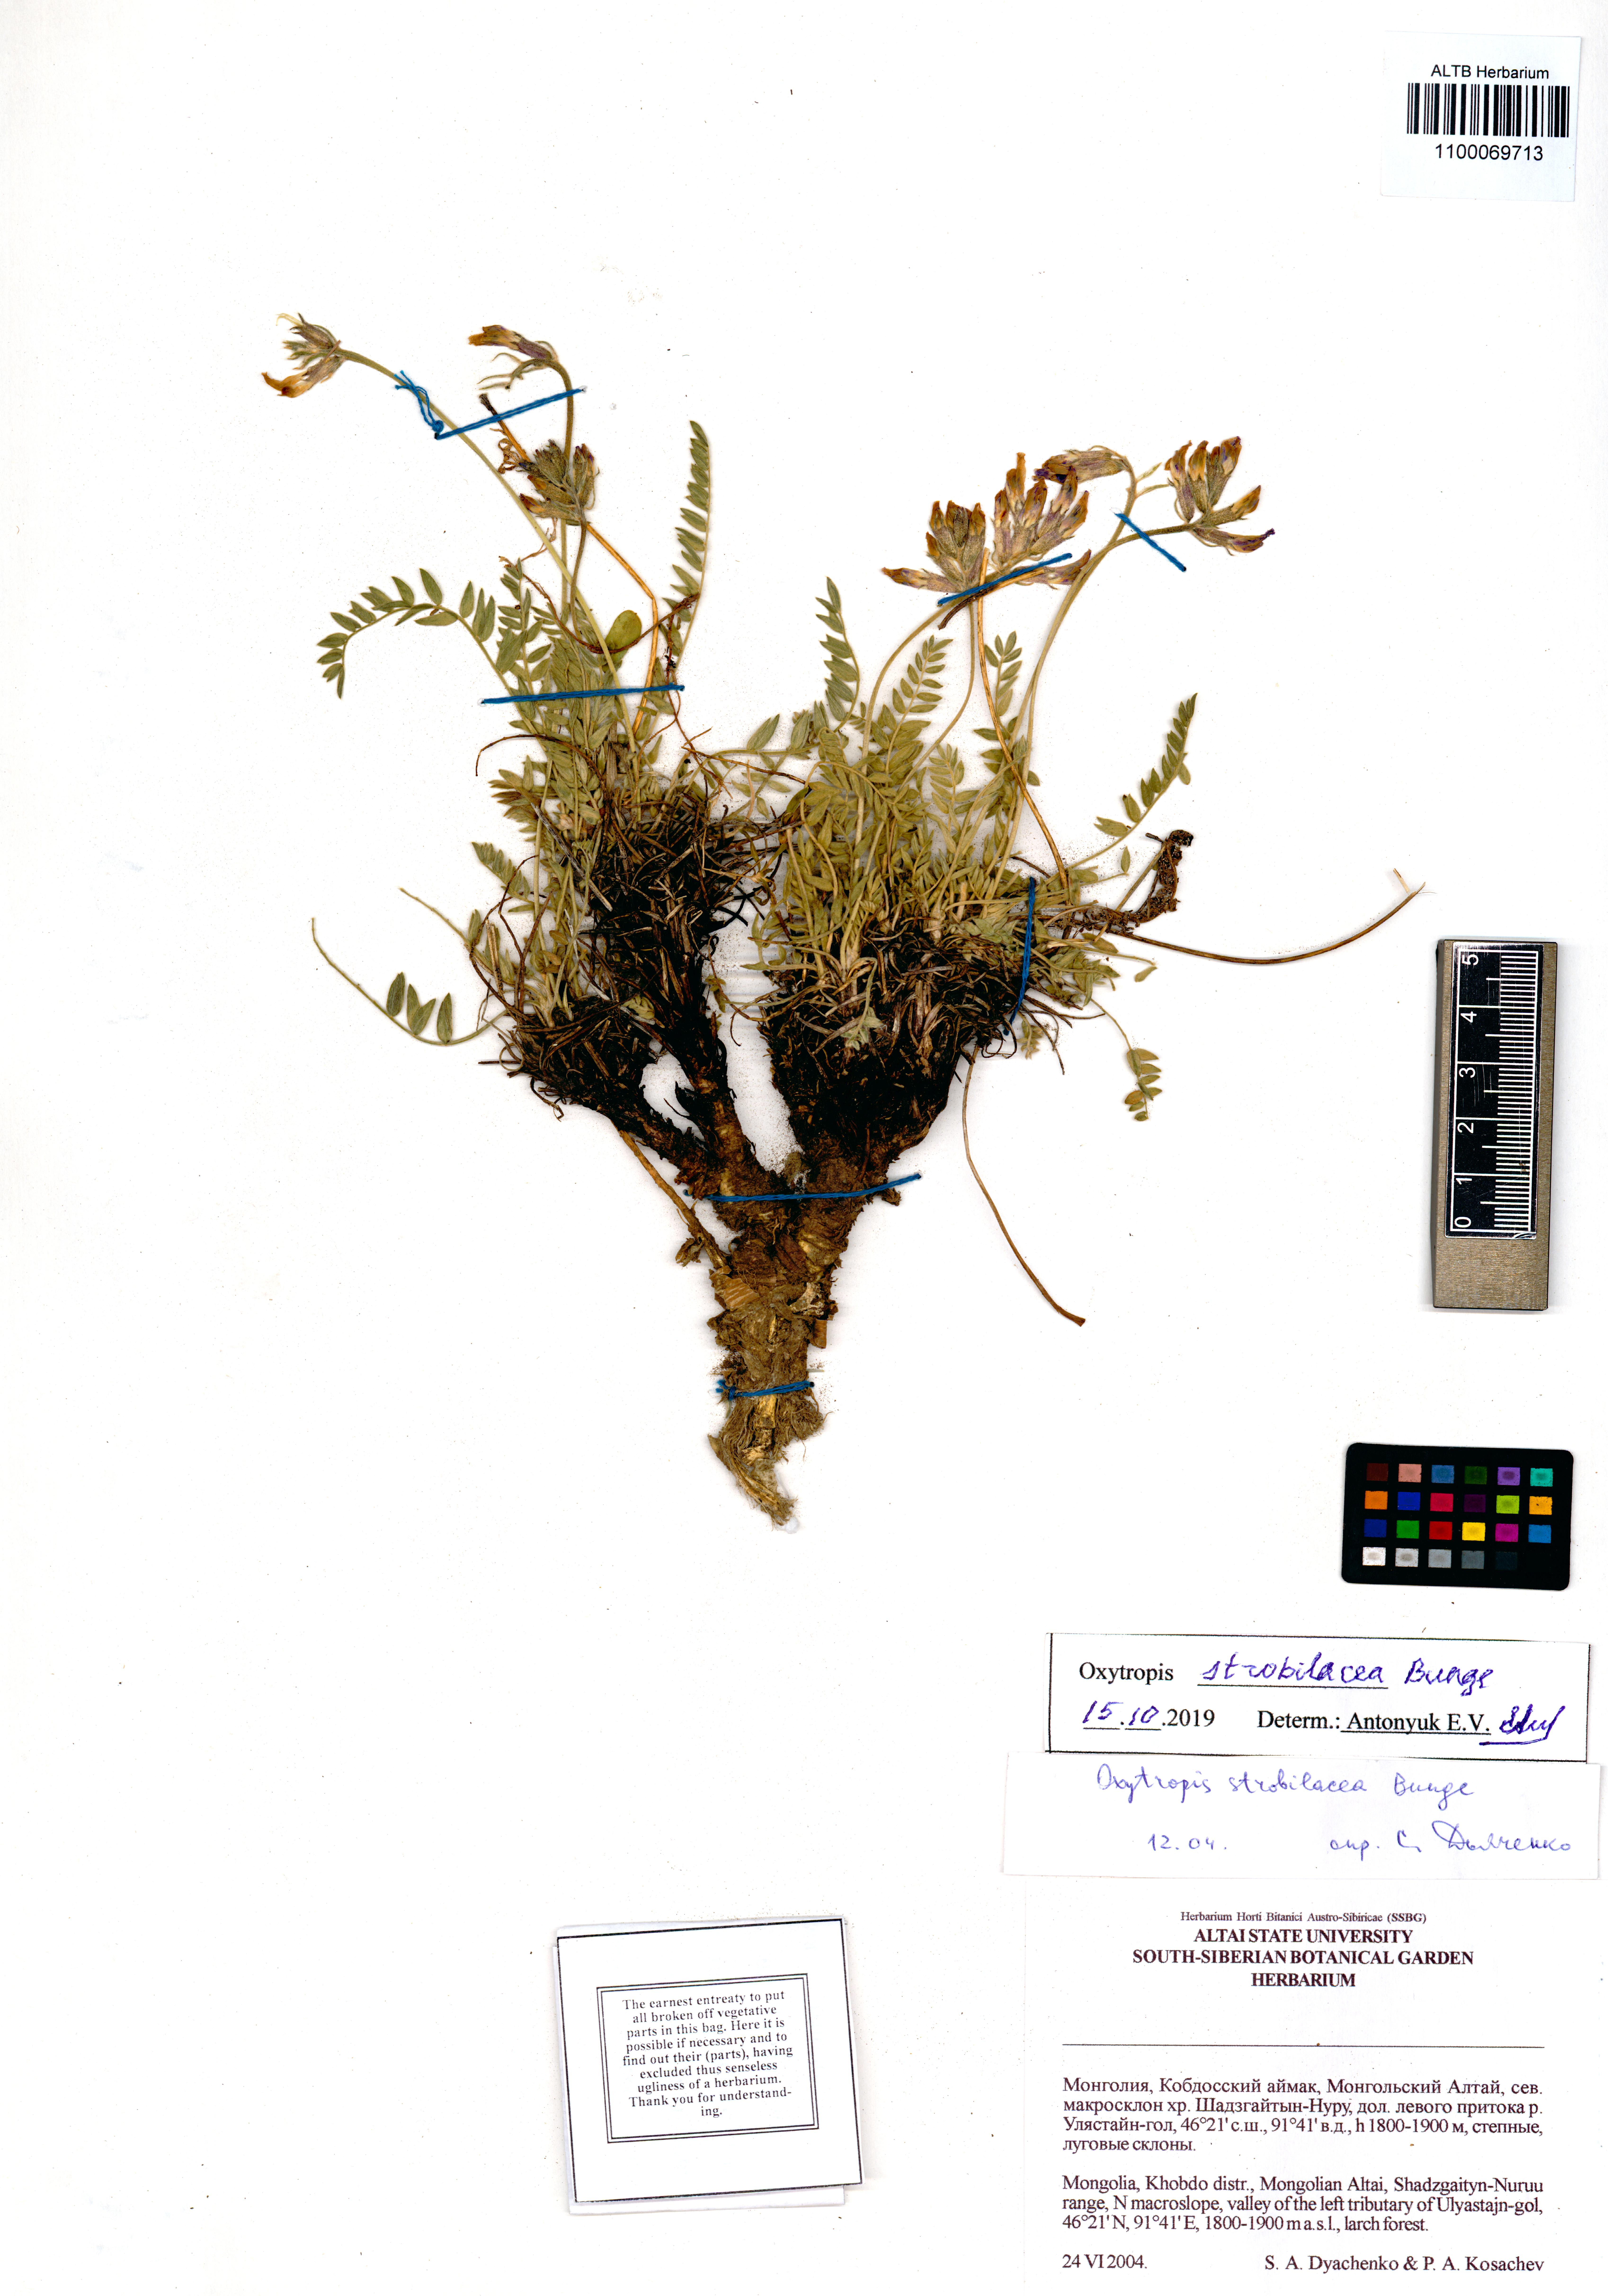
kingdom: Plantae
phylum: Tracheophyta
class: Magnoliopsida
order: Fabales
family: Fabaceae
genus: Oxytropis
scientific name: Oxytropis strobilacea
